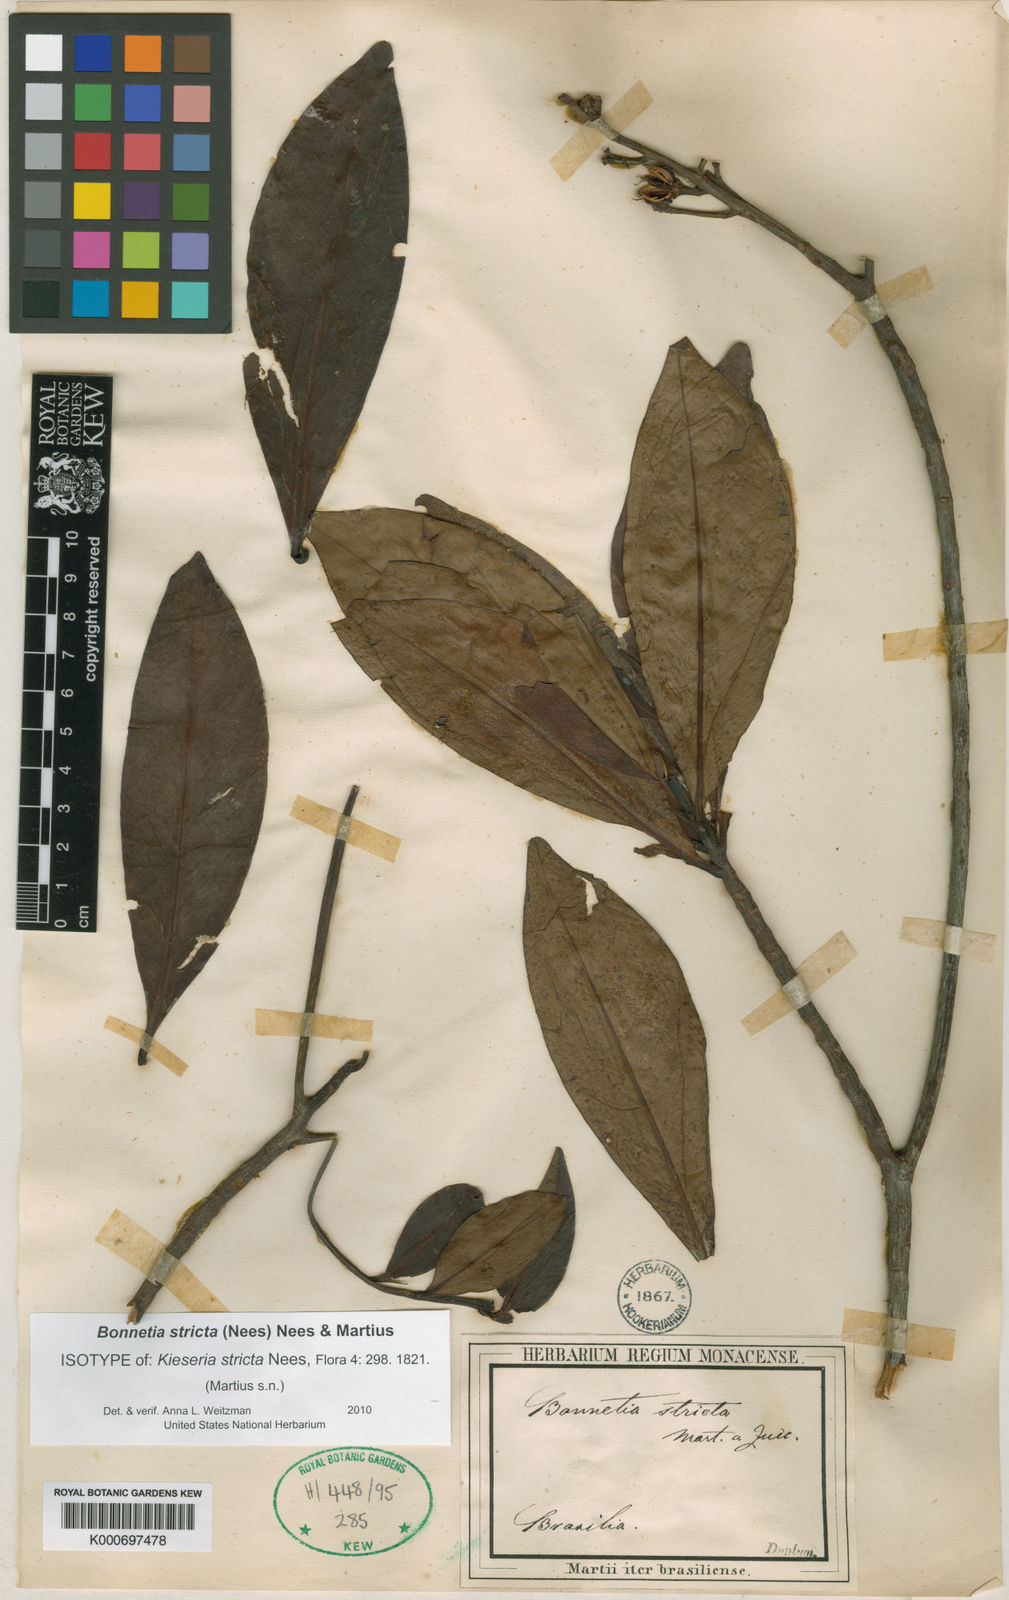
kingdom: Plantae
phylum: Tracheophyta
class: Magnoliopsida
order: Malpighiales
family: Bonnetiaceae
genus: Bonnetia
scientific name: Bonnetia stricta
